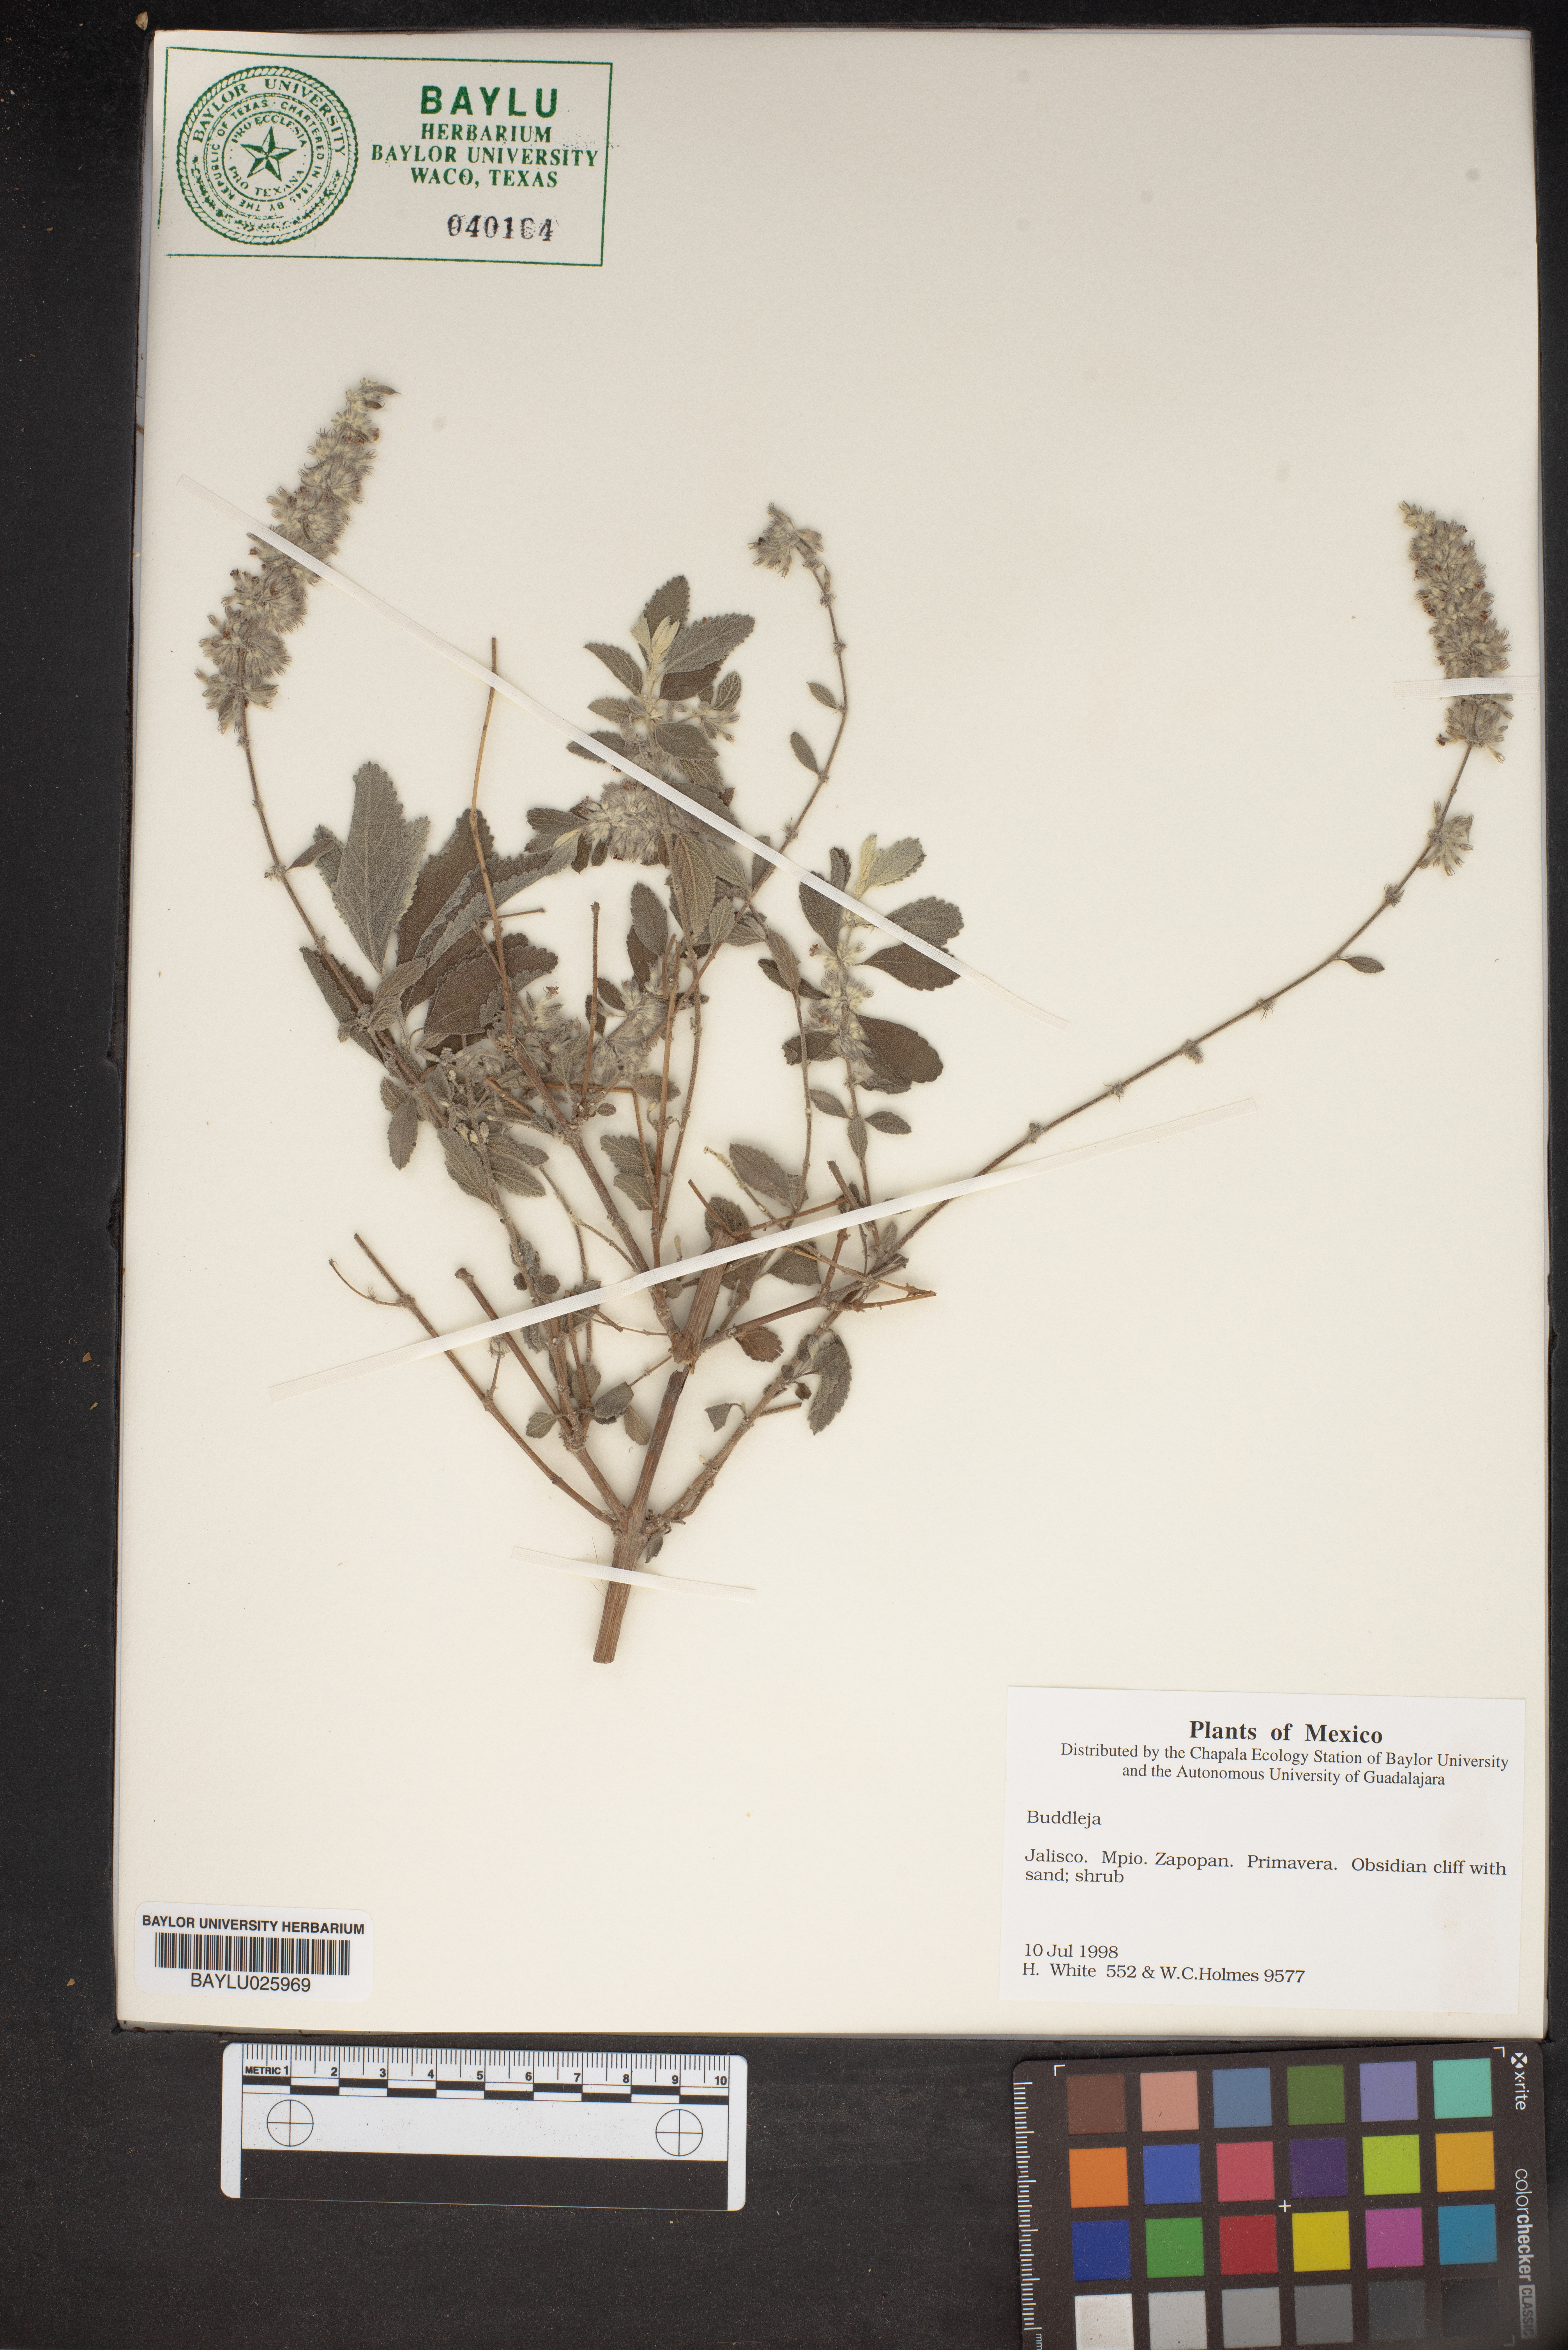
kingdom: Plantae
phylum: Tracheophyta
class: Magnoliopsida
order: Lamiales
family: Scrophulariaceae
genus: Buddleja
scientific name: Buddleja
